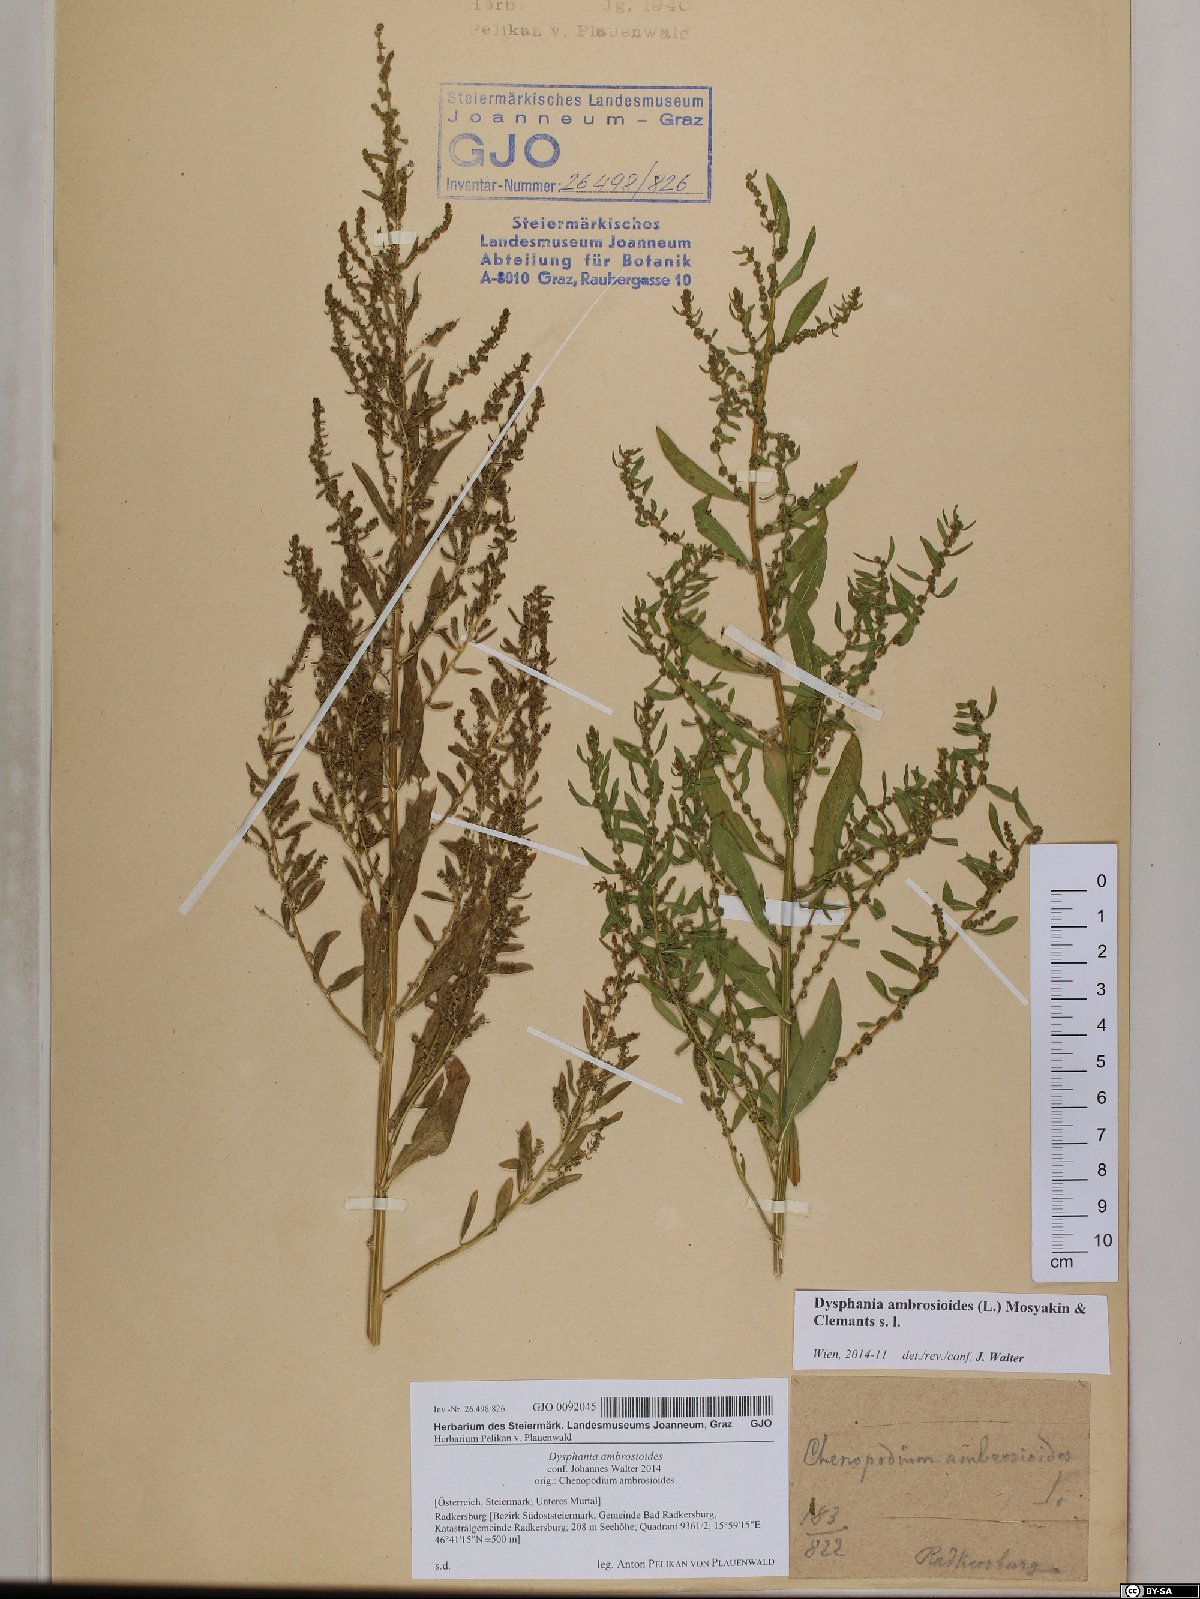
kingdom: Plantae
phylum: Tracheophyta
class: Magnoliopsida
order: Caryophyllales
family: Amaranthaceae
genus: Dysphania
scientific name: Dysphania ambrosioides
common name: Wormseed
